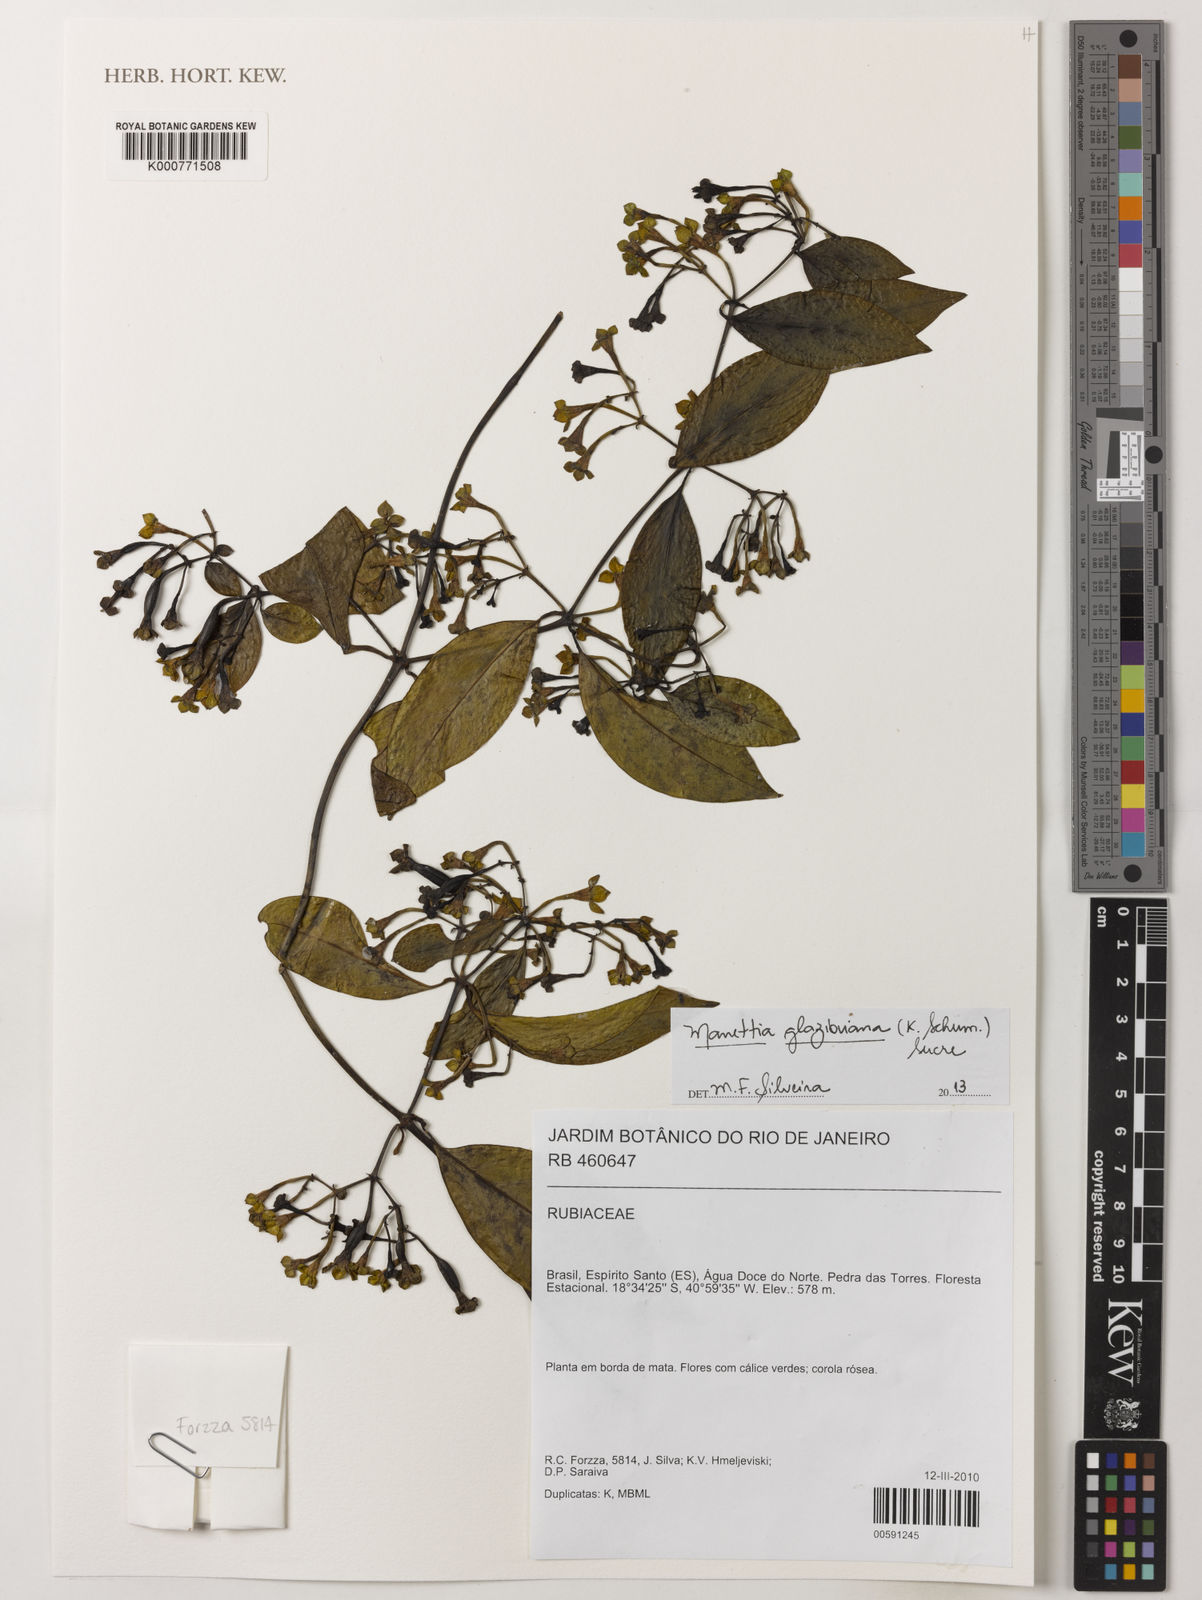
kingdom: Plantae
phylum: Tracheophyta
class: Magnoliopsida
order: Gentianales
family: Rubiaceae
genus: Manettia
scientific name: Manettia glazioviana
